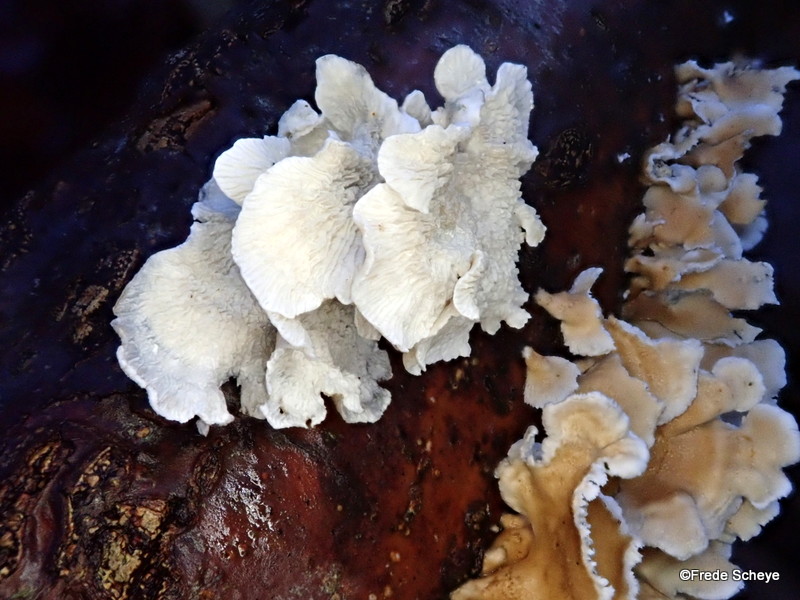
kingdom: Fungi
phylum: Basidiomycota
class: Agaricomycetes
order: Amylocorticiales
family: Amylocorticiaceae
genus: Plicaturopsis
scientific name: Plicaturopsis crispa
